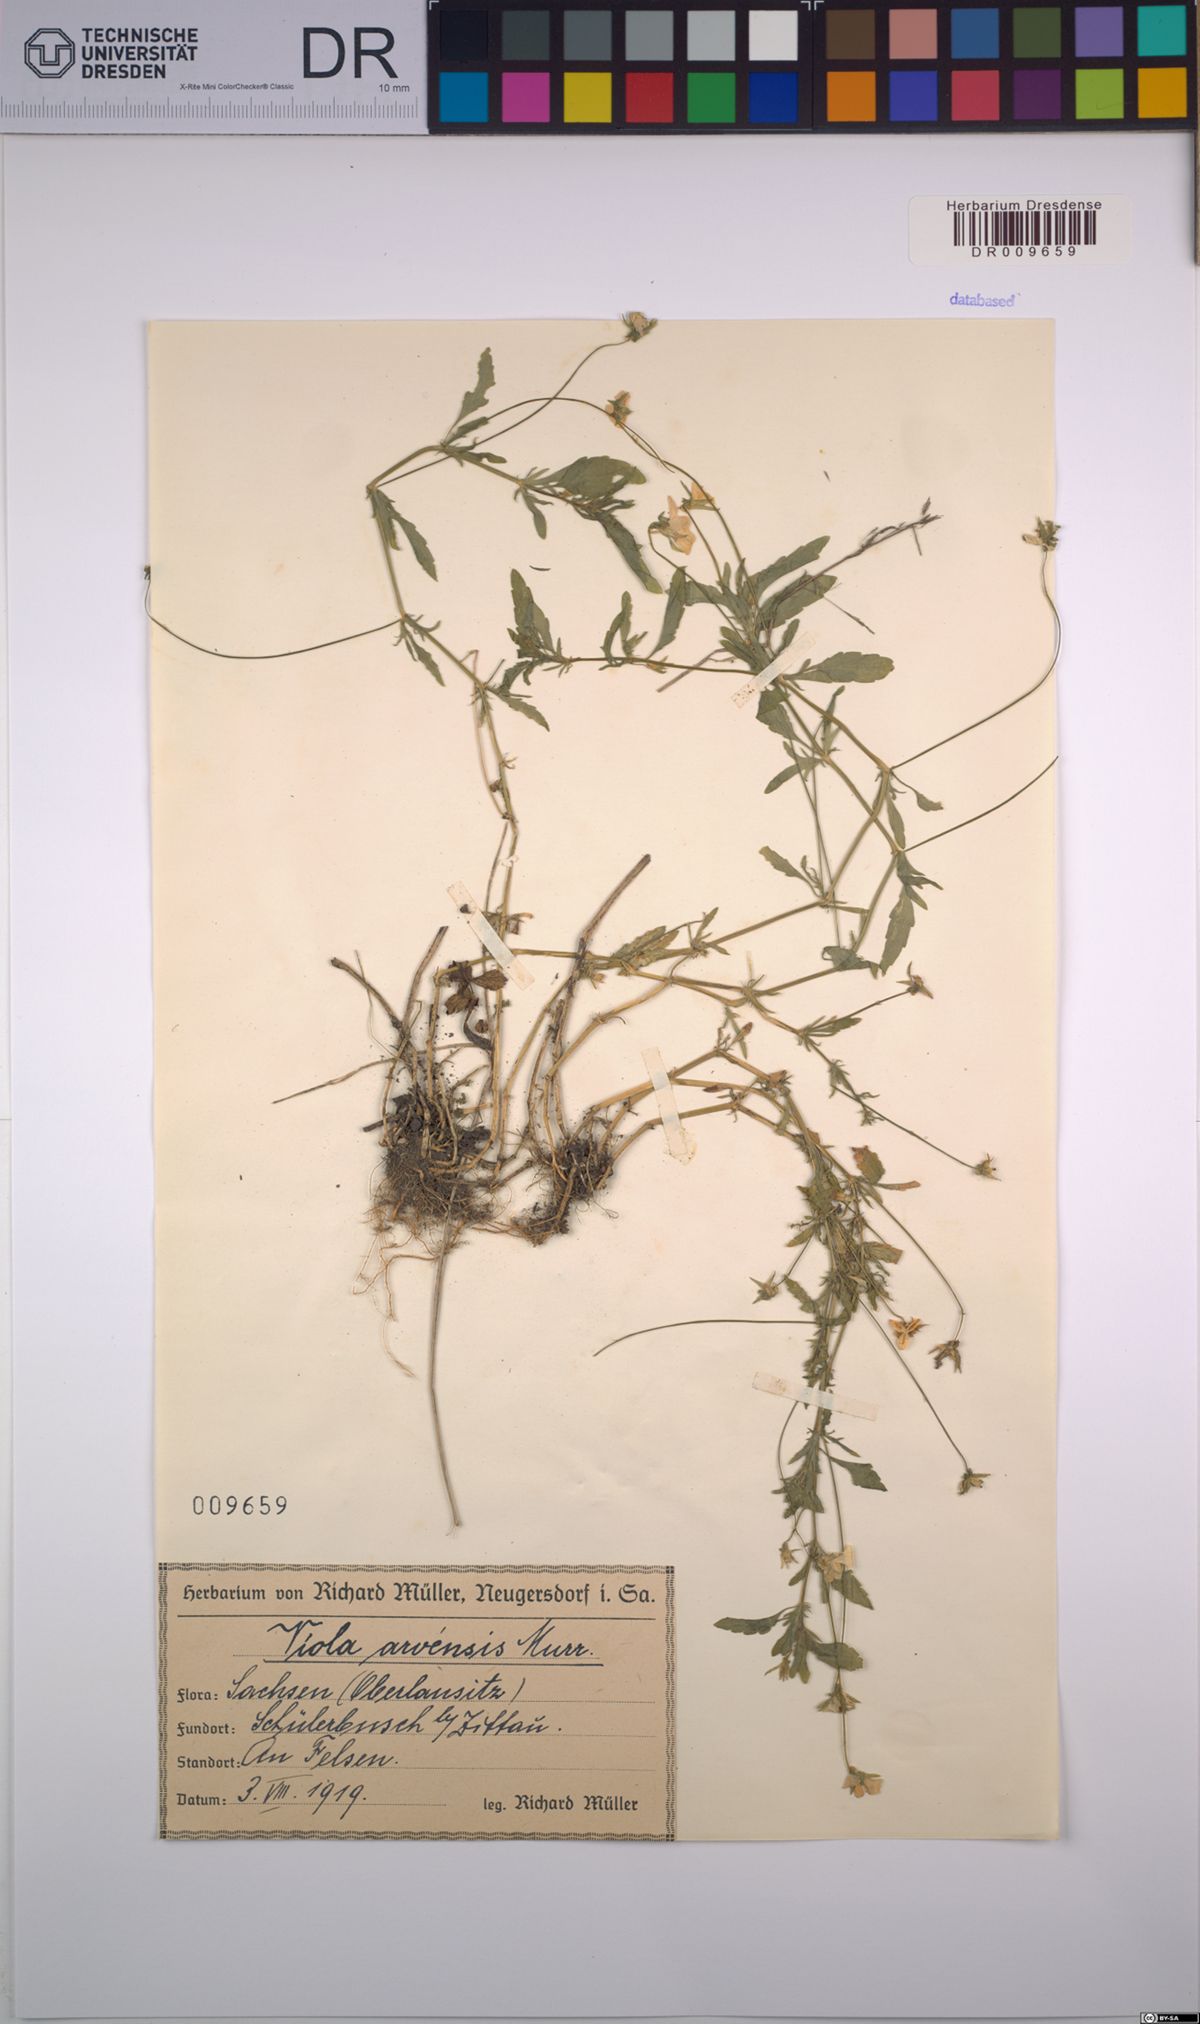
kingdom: Plantae
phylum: Tracheophyta
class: Magnoliopsida
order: Malpighiales
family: Violaceae
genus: Viola
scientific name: Viola arvensis
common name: Field pansy
